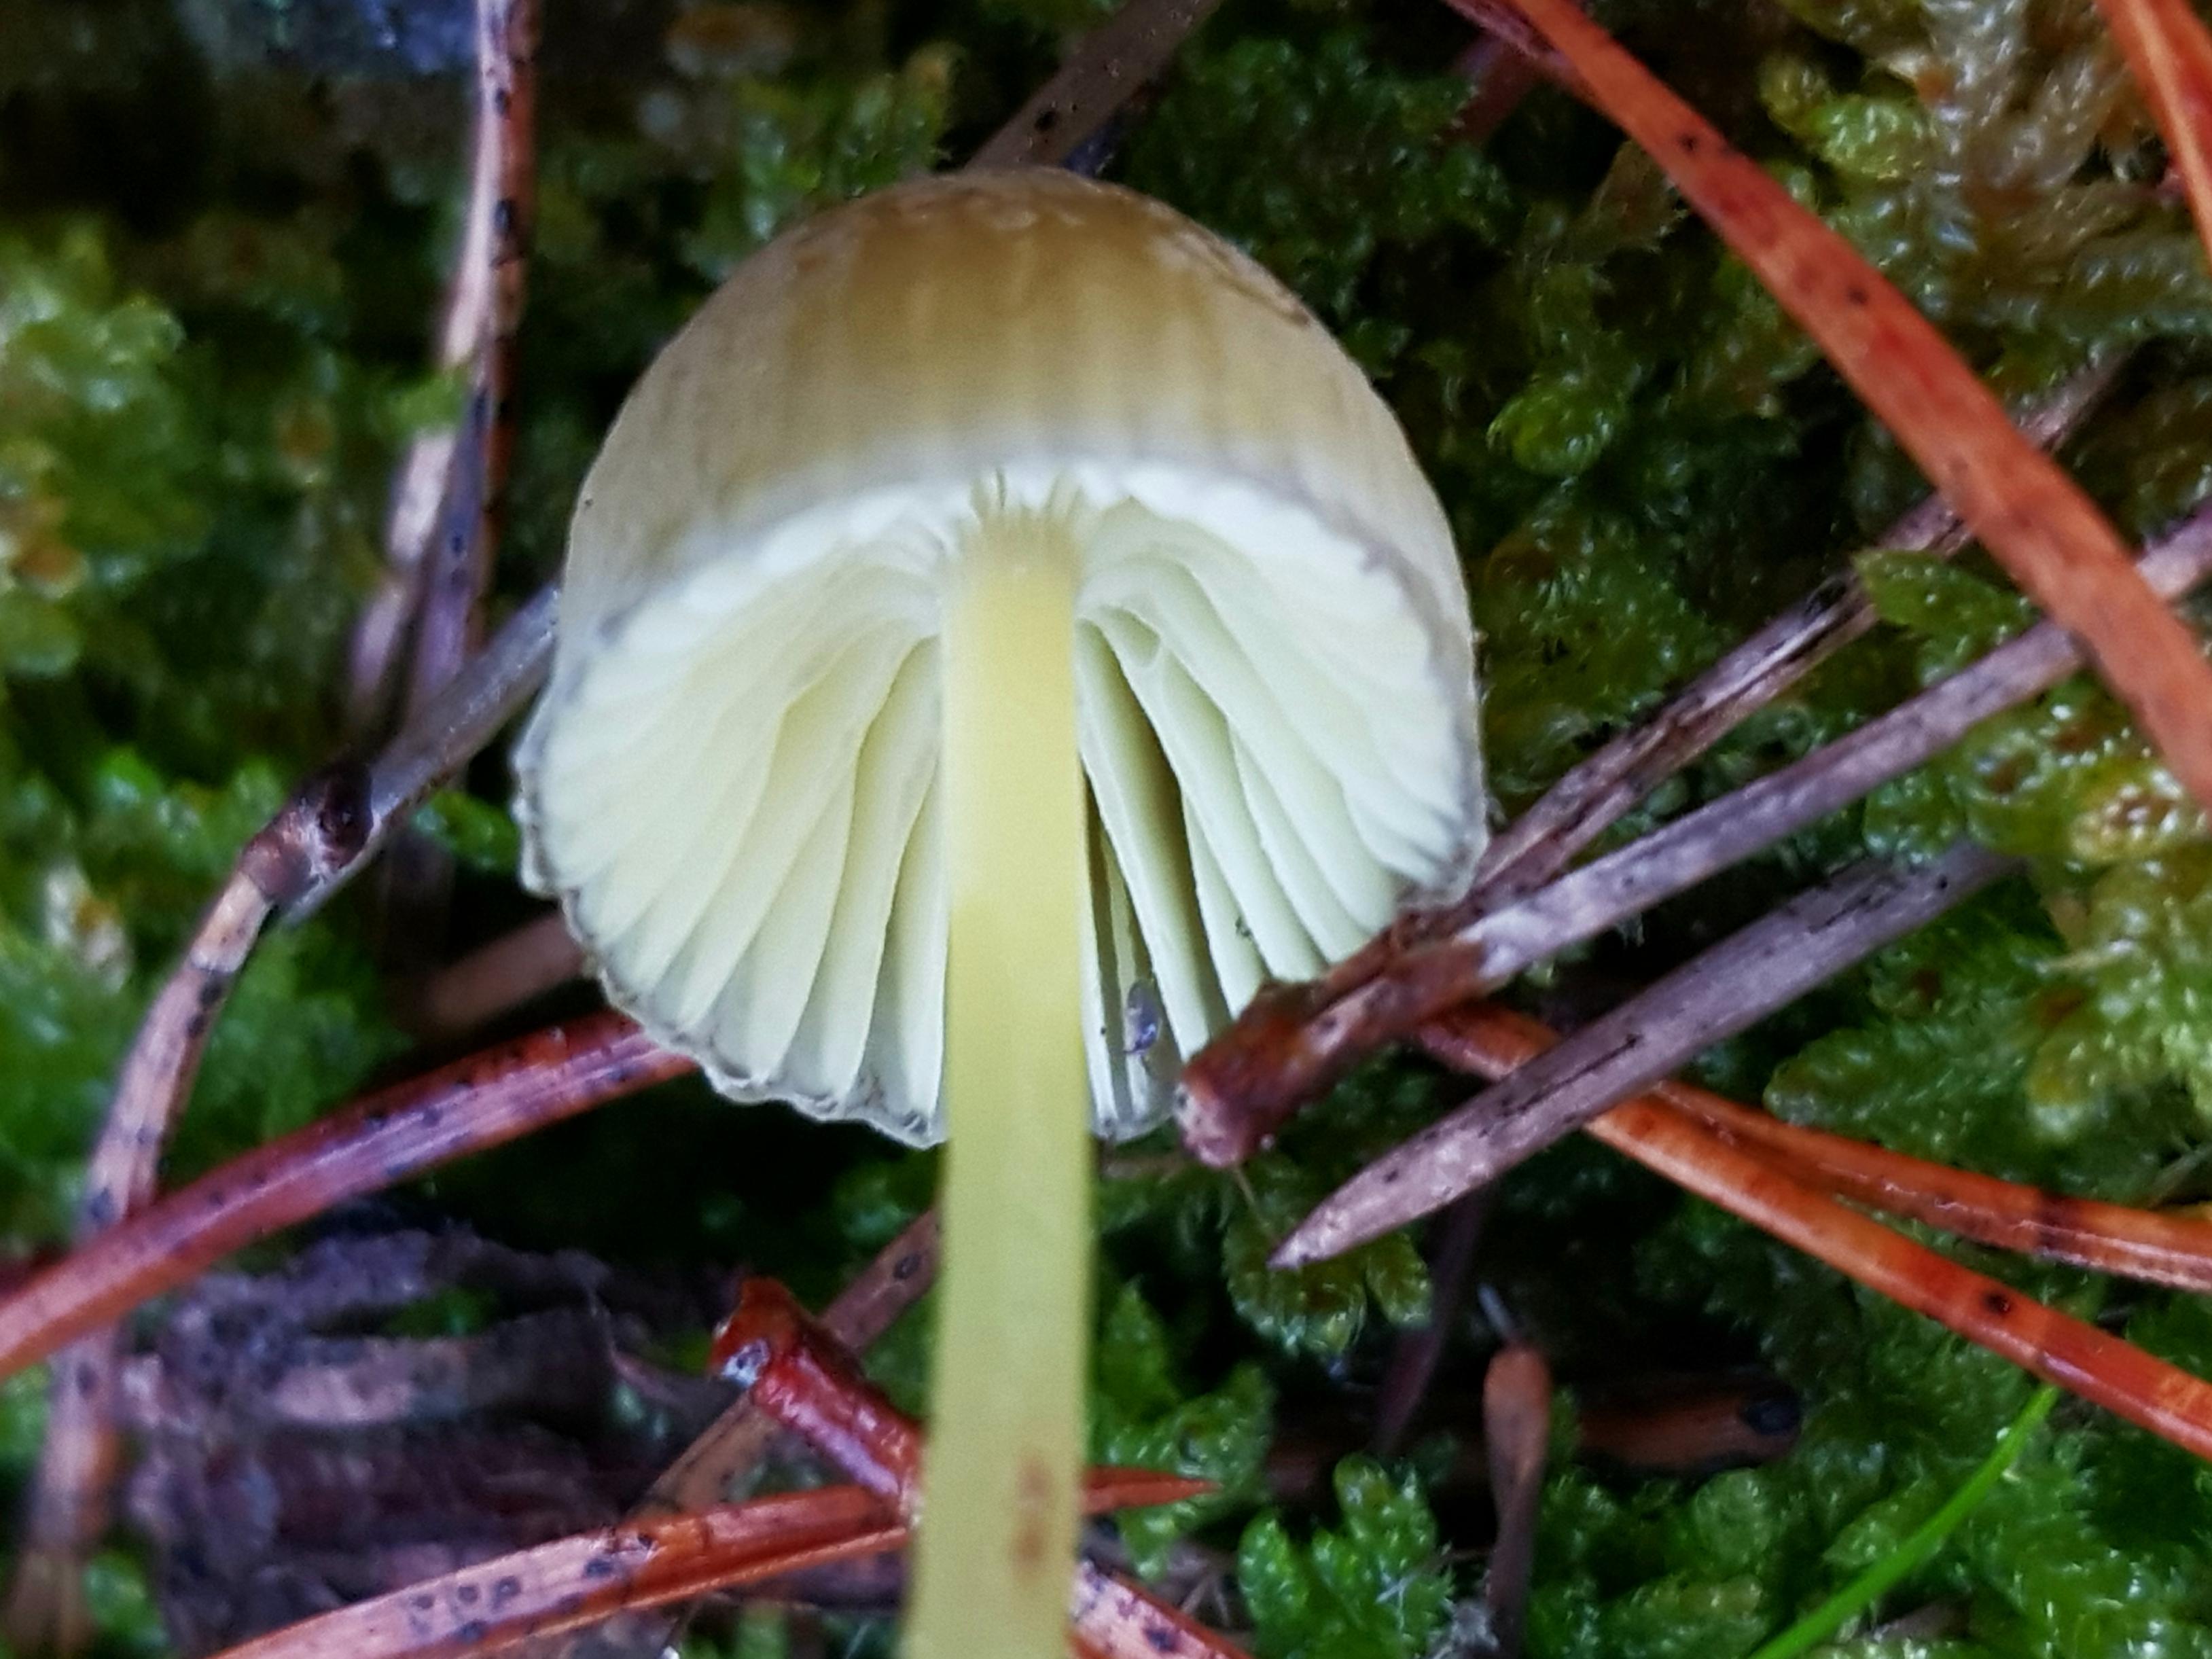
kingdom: Fungi
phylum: Basidiomycota
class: Agaricomycetes
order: Agaricales
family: Mycenaceae
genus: Mycena
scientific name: Mycena epipterygia
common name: gulstokket huesvamp
